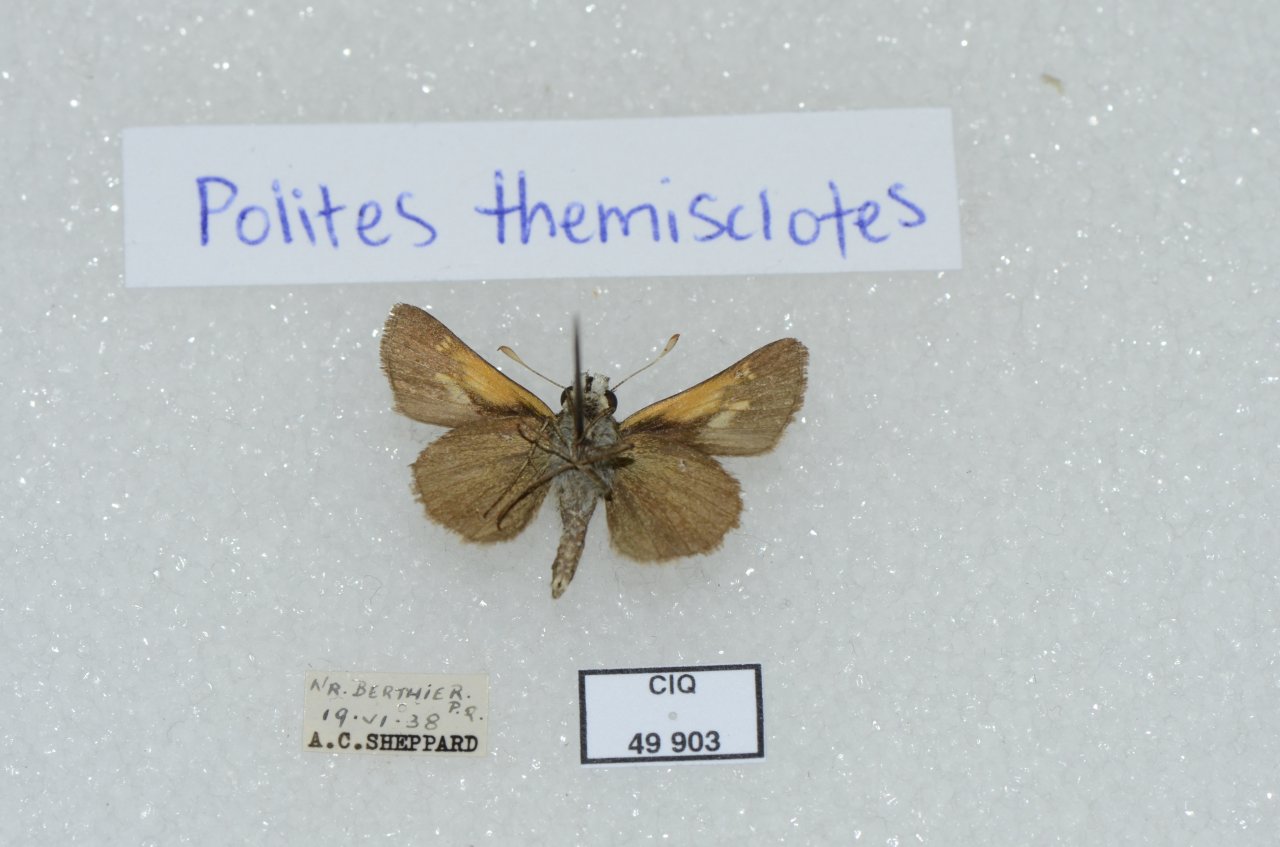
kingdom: Animalia
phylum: Arthropoda
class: Insecta
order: Lepidoptera
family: Hesperiidae
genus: Polites
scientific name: Polites themistocles
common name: Tawny-edged Skipper
